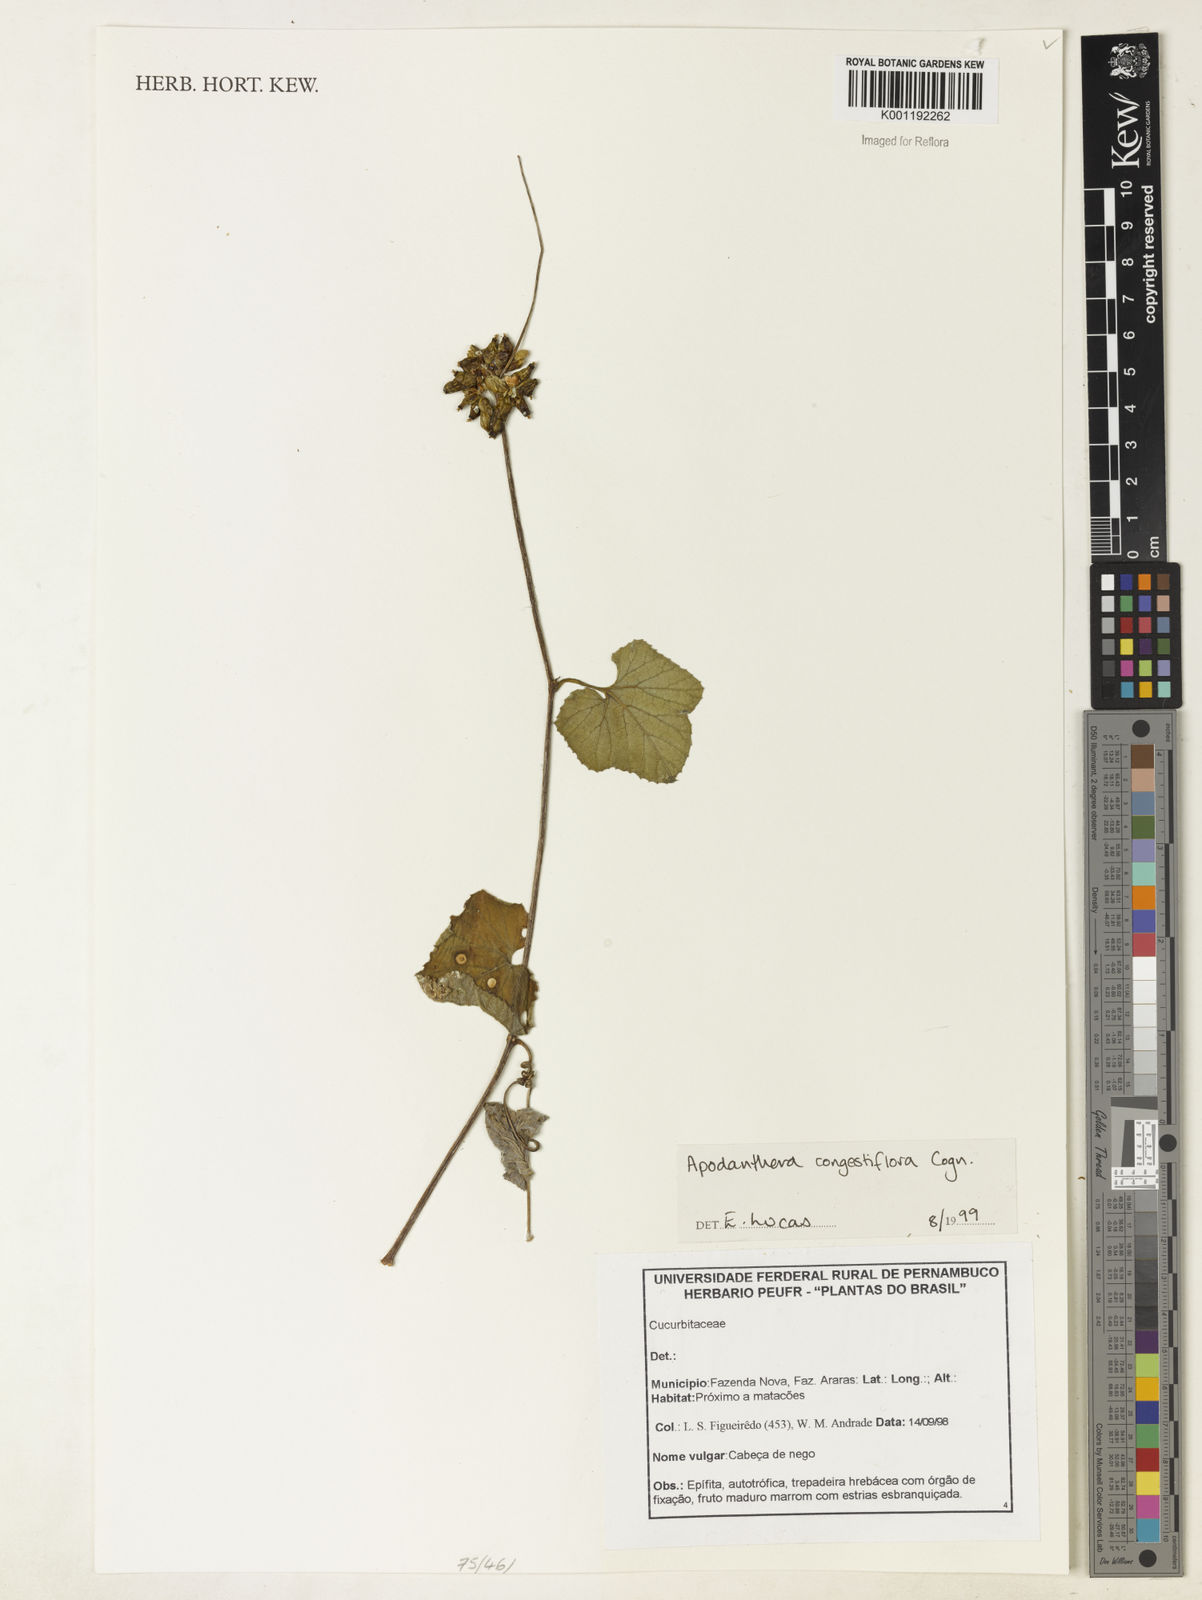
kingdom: Plantae
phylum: Tracheophyta
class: Magnoliopsida
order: Cucurbitales
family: Cucurbitaceae
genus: Apodanthera
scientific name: Apodanthera congestiflora
